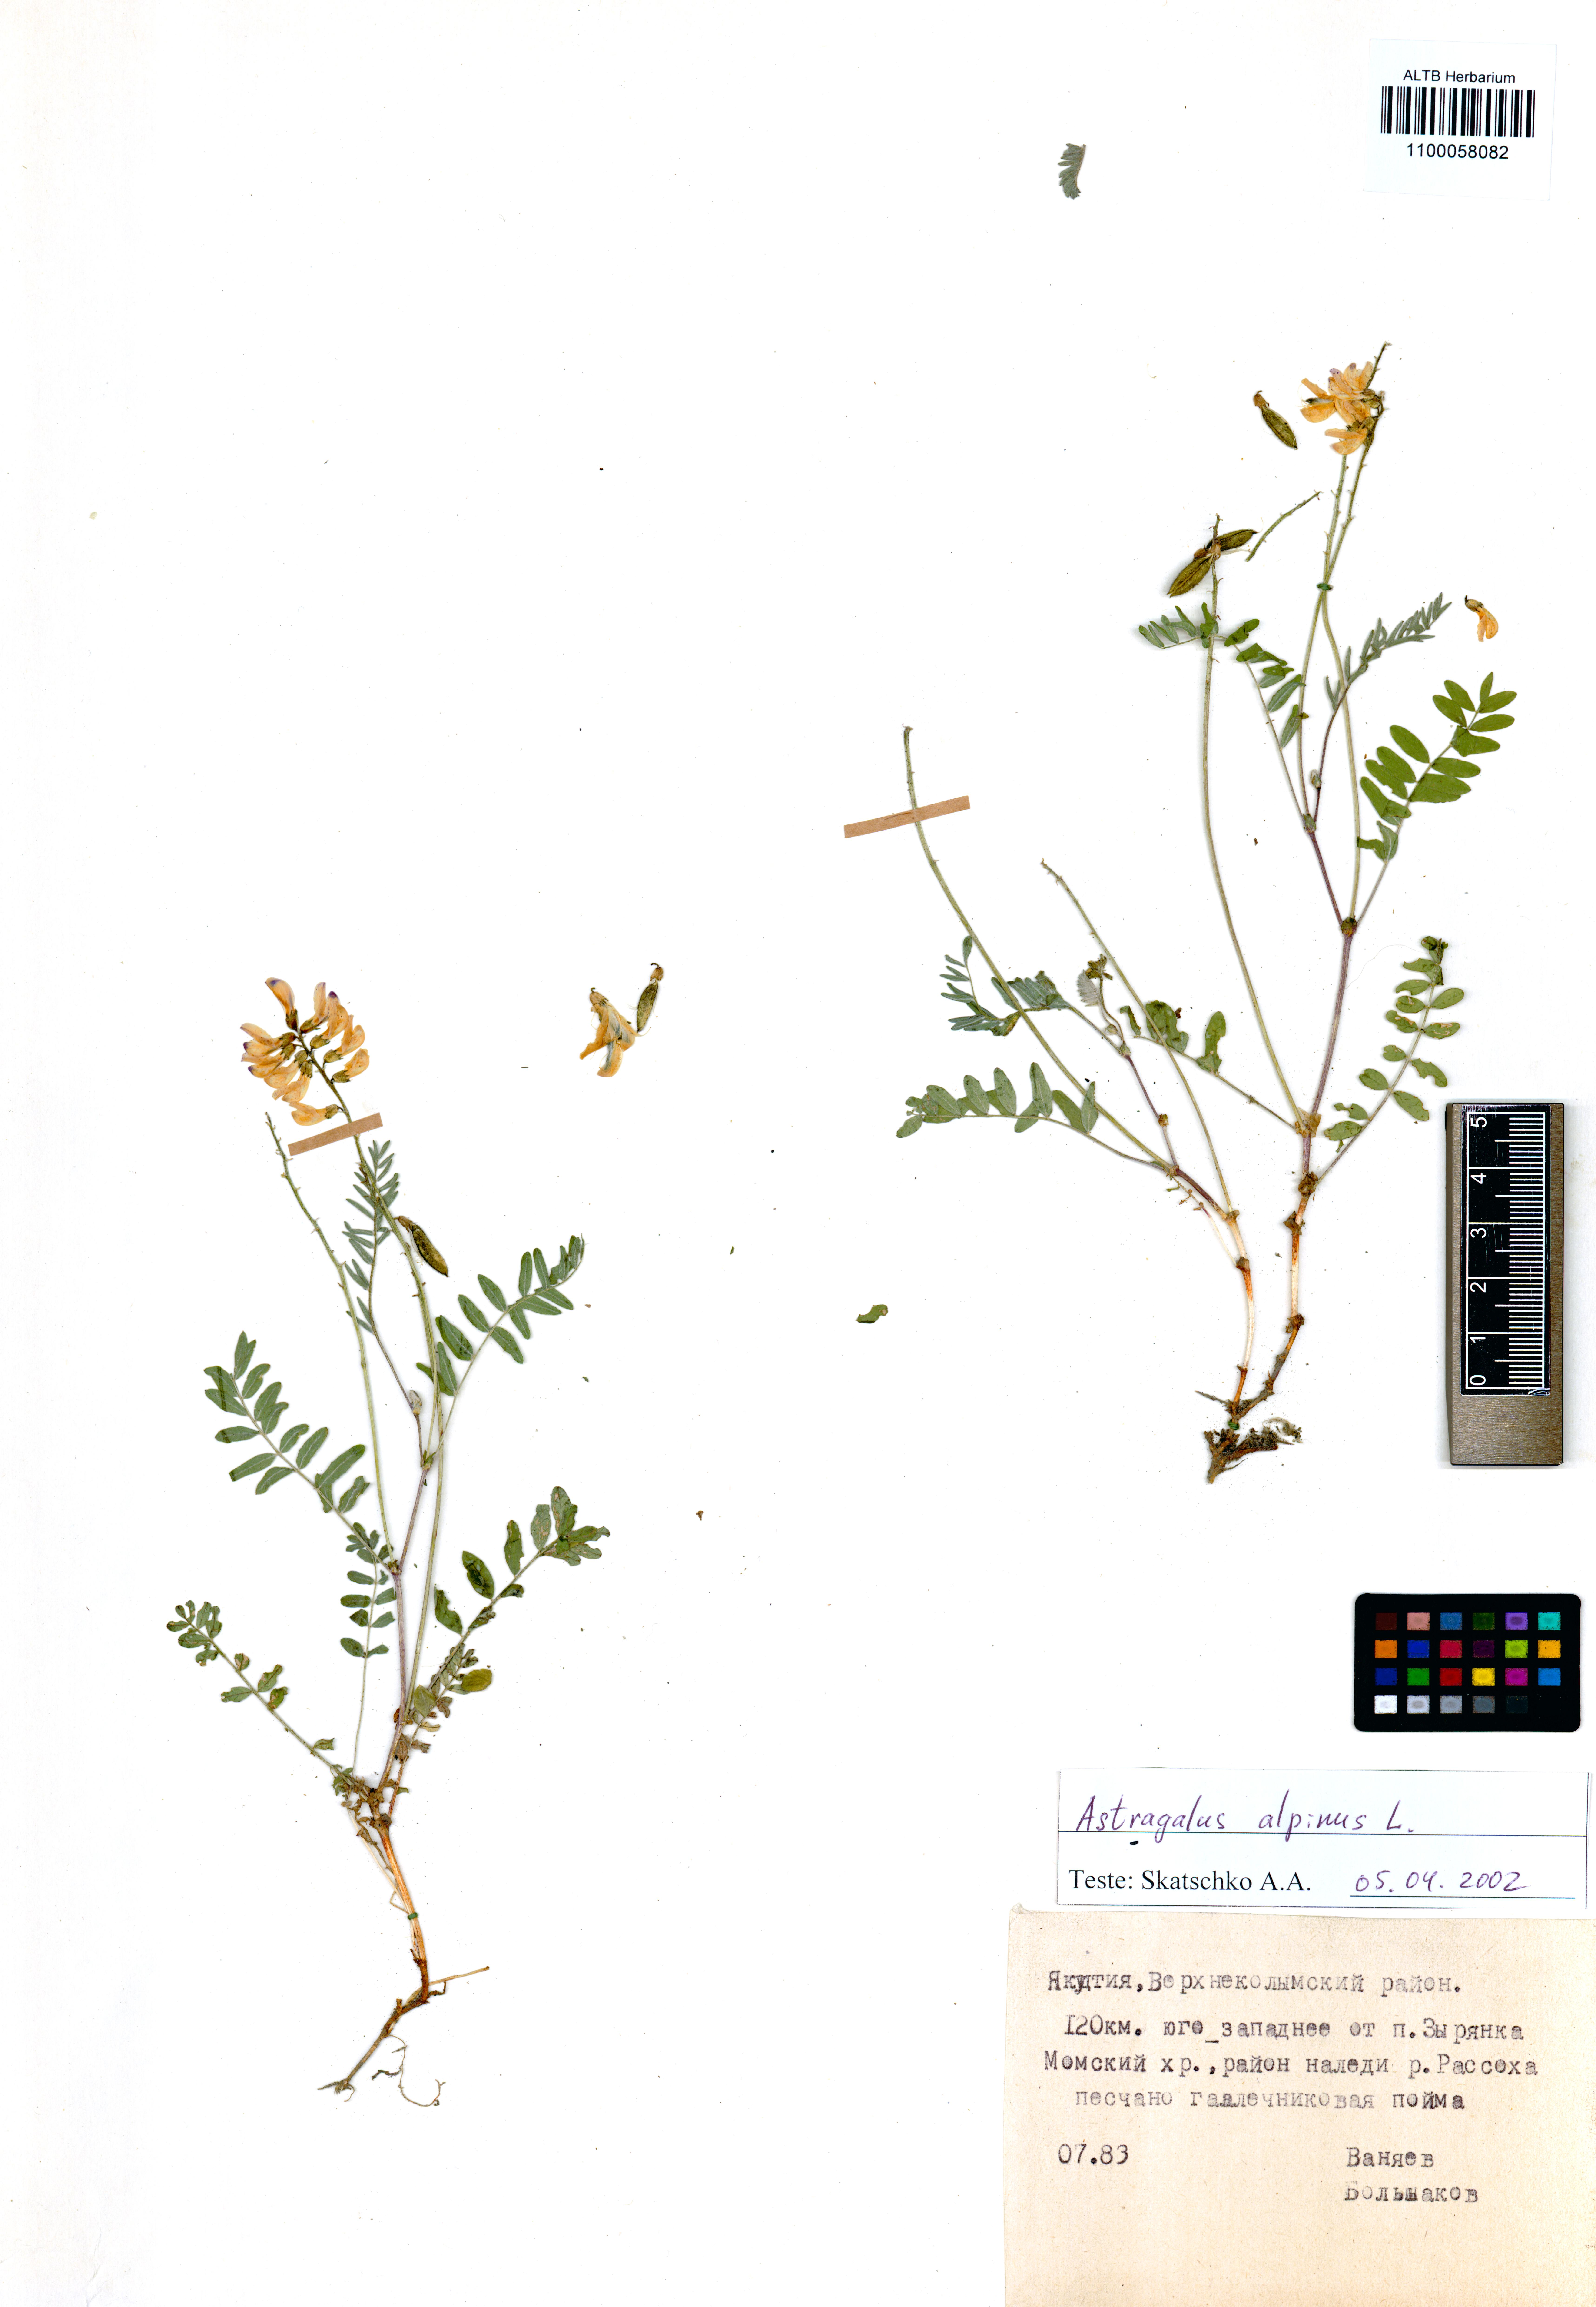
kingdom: Plantae
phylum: Tracheophyta
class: Magnoliopsida
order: Fabales
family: Fabaceae
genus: Astragalus
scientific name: Astragalus alpinus
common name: Alpine milk-vetch
